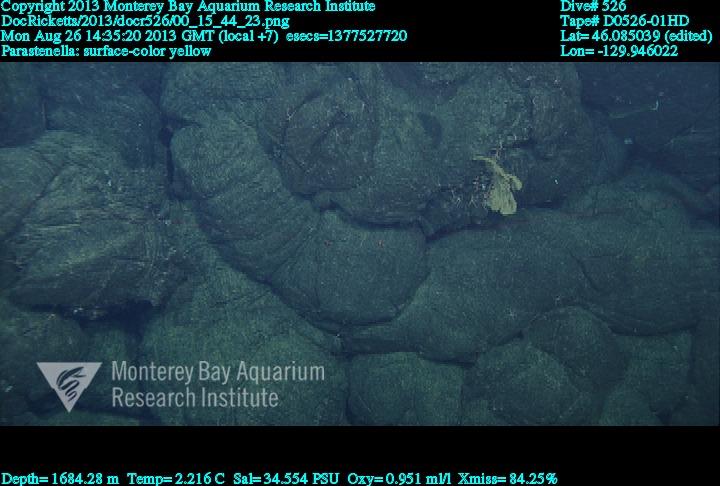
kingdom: Animalia
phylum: Cnidaria
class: Anthozoa
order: Scleralcyonacea
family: Primnoidae
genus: Parastenella
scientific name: Parastenella
